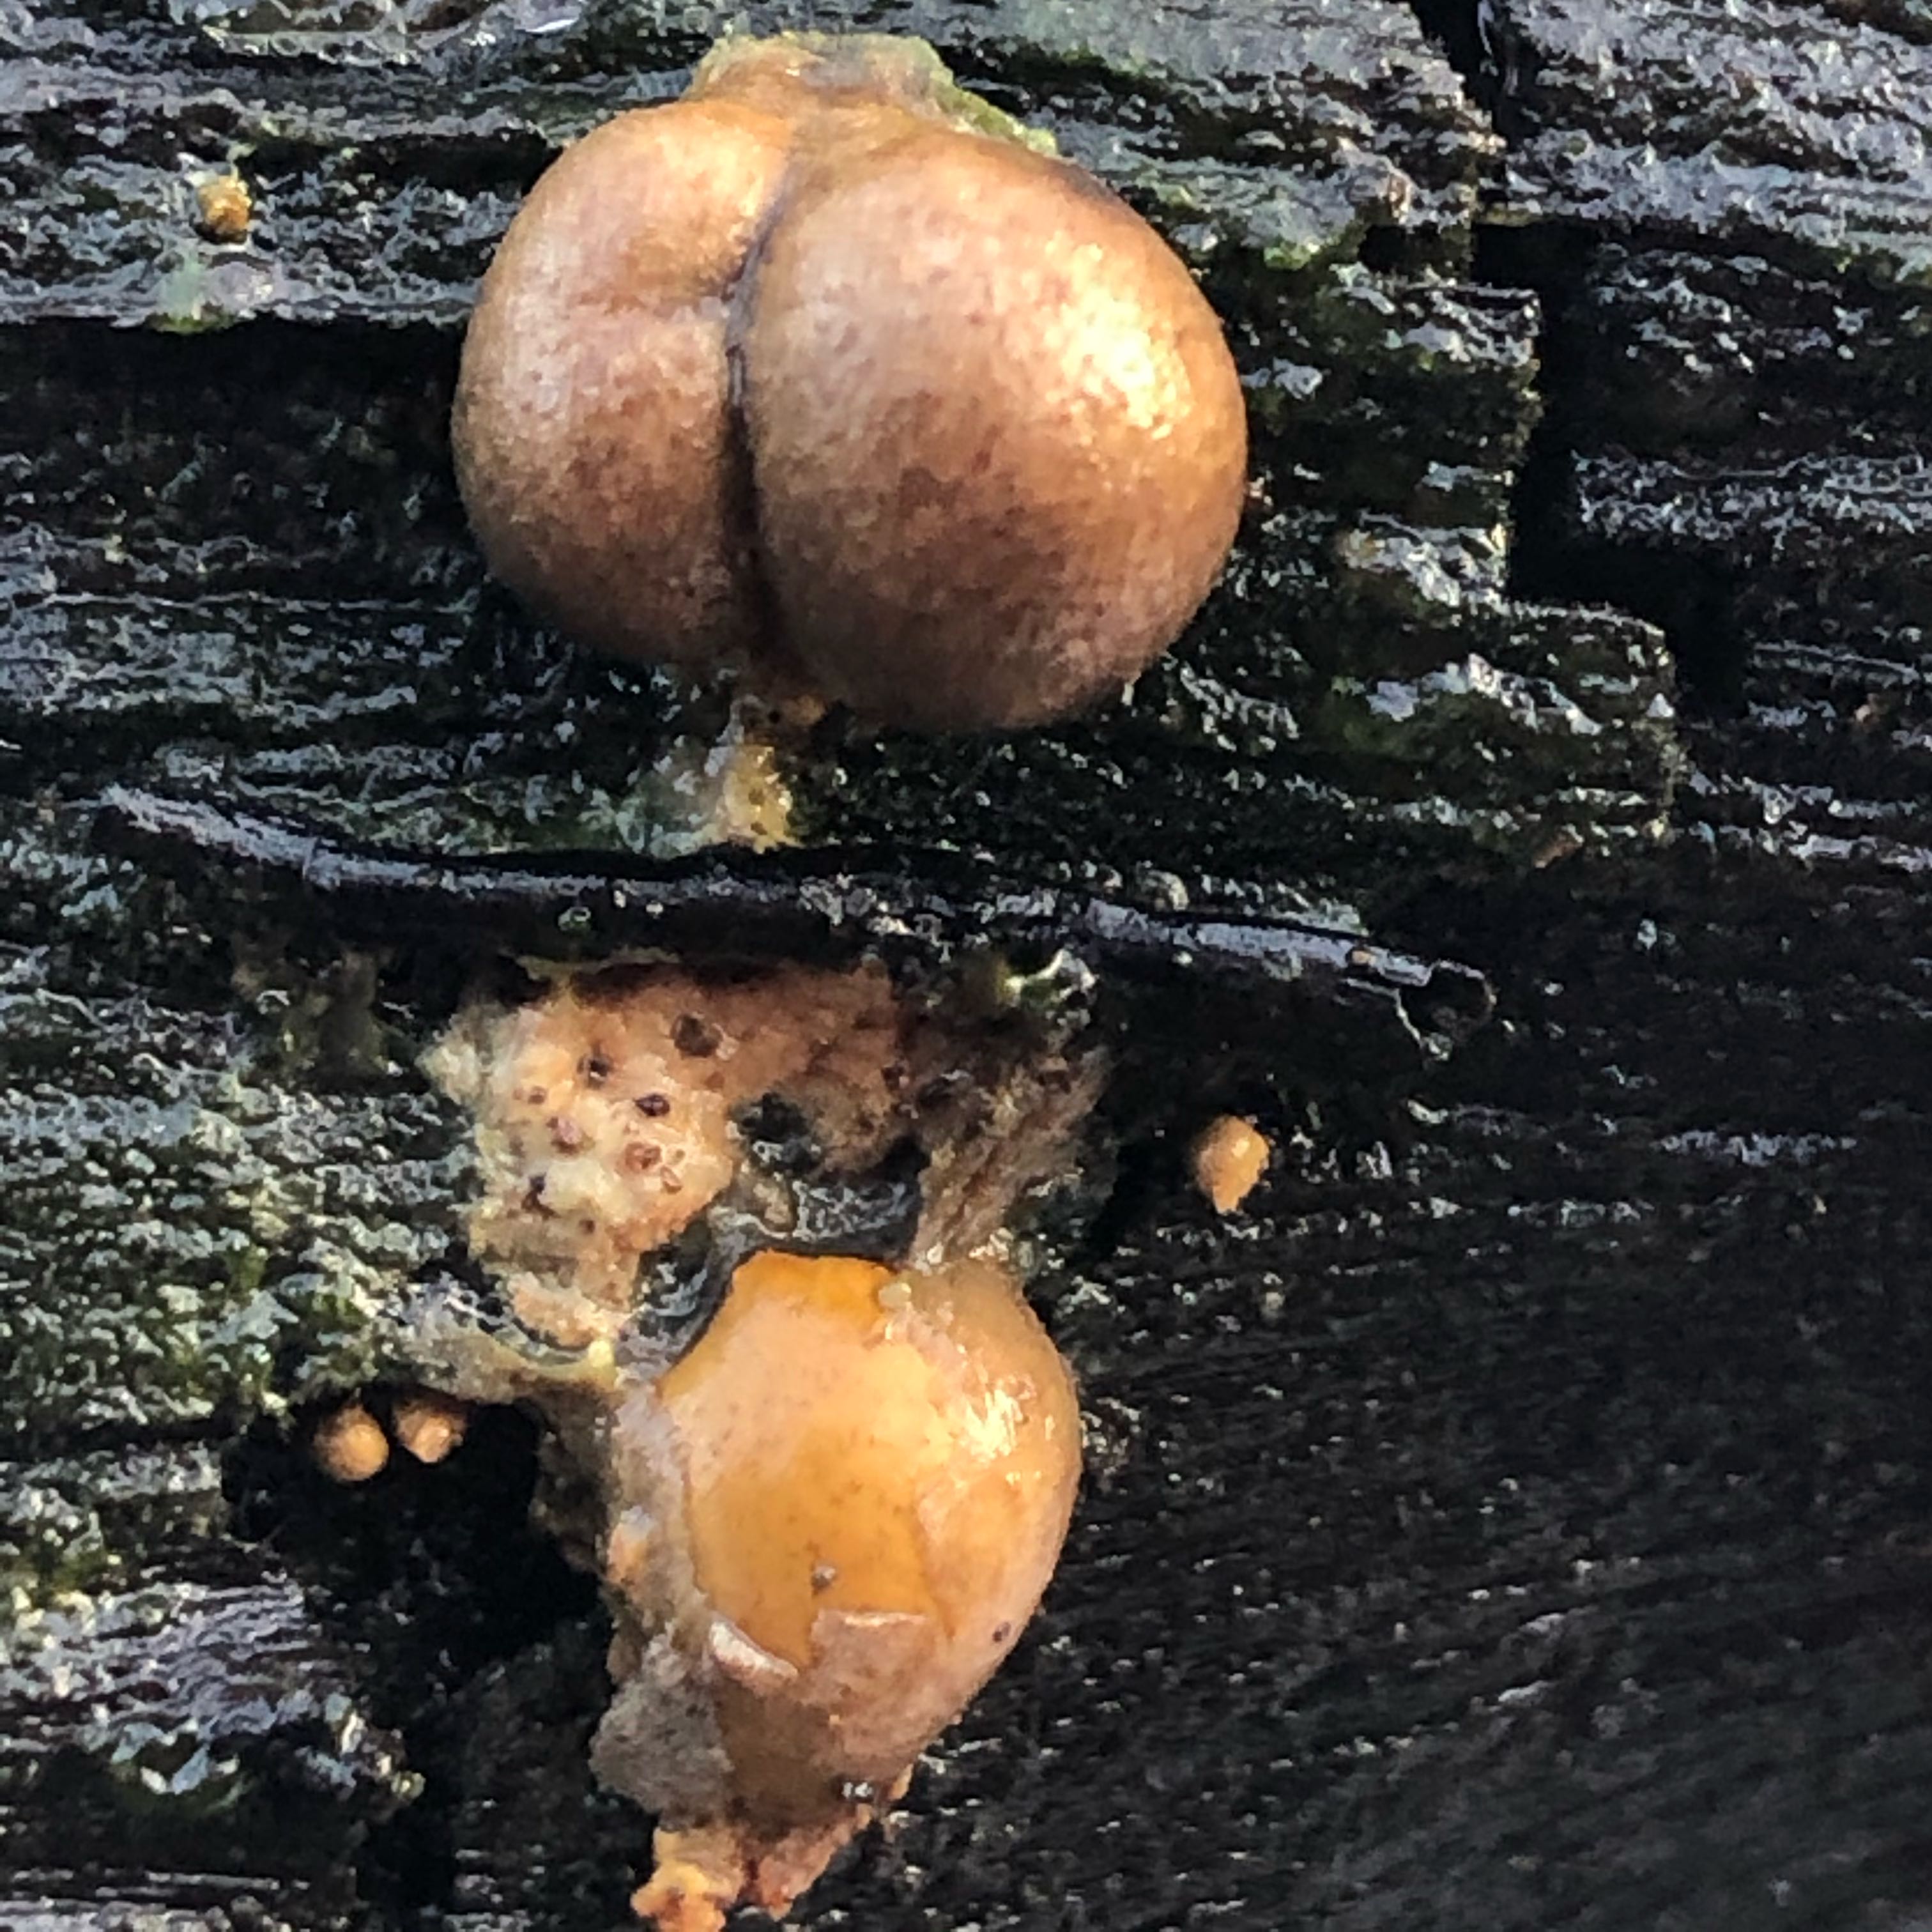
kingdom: Protozoa
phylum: Mycetozoa
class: Myxomycetes
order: Cribrariales
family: Tubiferaceae
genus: Lycogala
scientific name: Lycogala epidendrum
